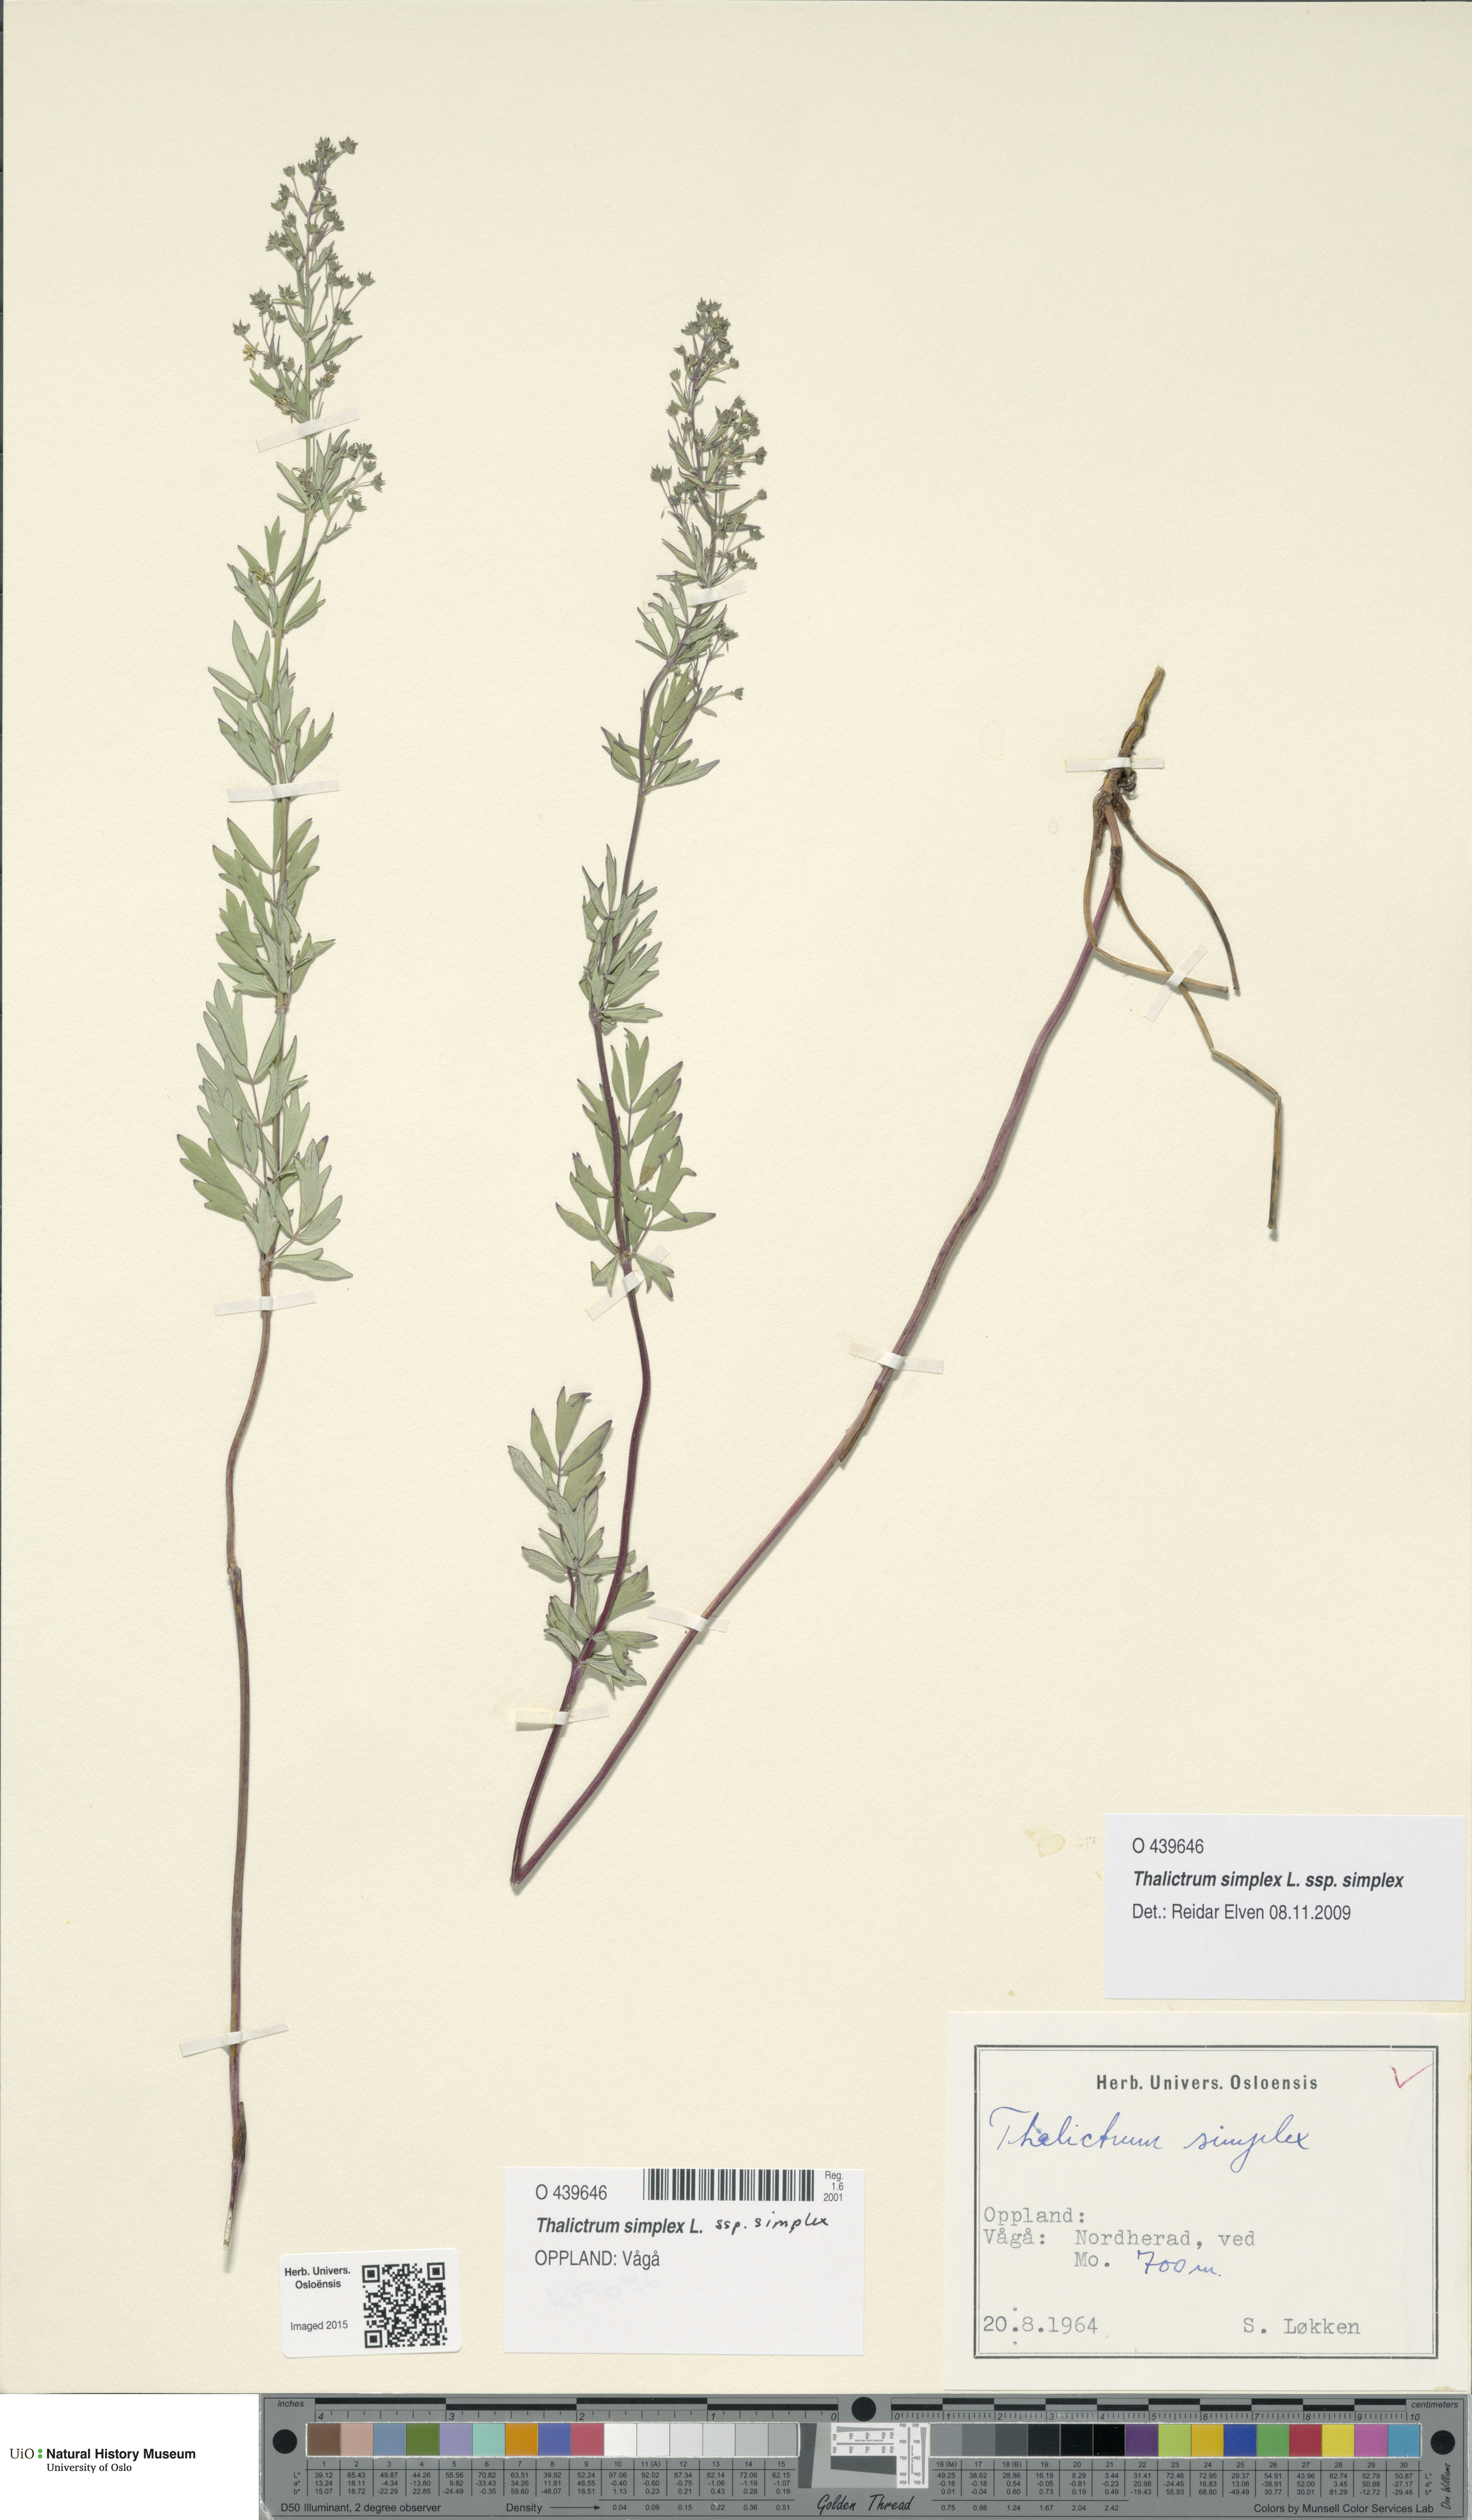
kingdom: Plantae
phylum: Tracheophyta
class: Magnoliopsida
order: Ranunculales
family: Ranunculaceae
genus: Thalictrum
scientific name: Thalictrum simplex
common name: Small meadow-rue
